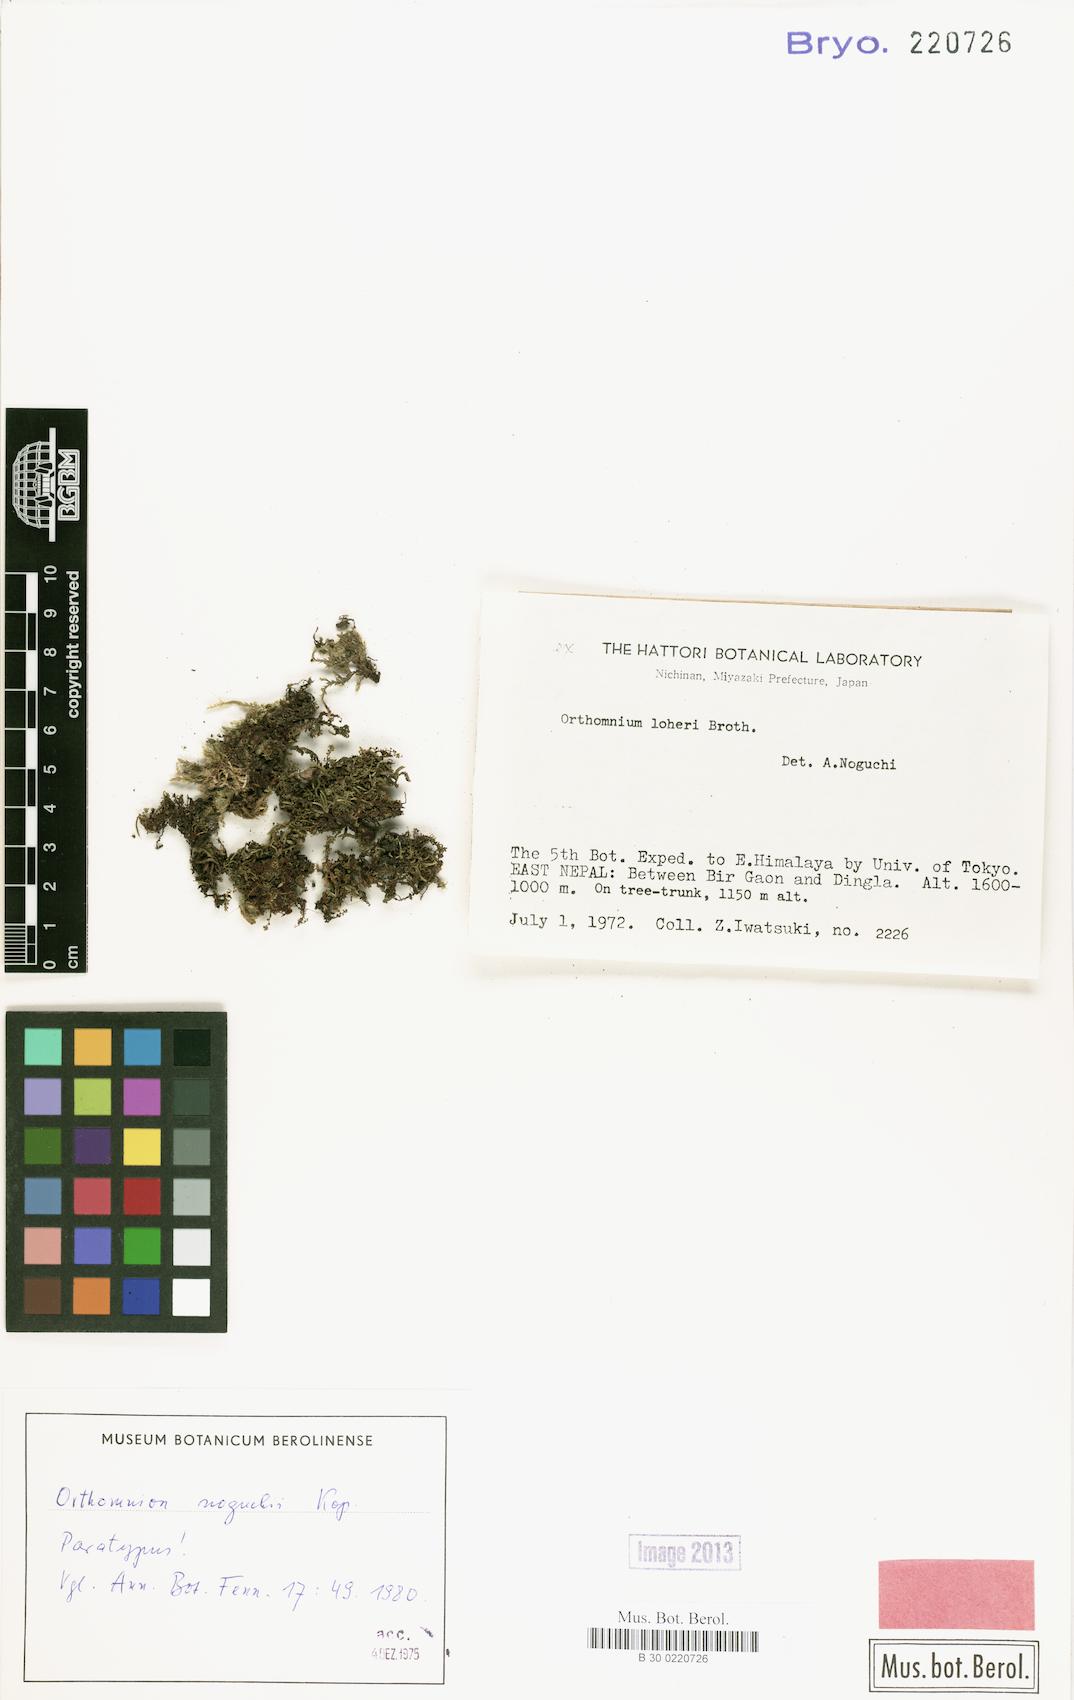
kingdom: Plantae
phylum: Bryophyta
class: Bryopsida
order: Bryales
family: Mniaceae
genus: Orthomnion
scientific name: Orthomnion noguchii
